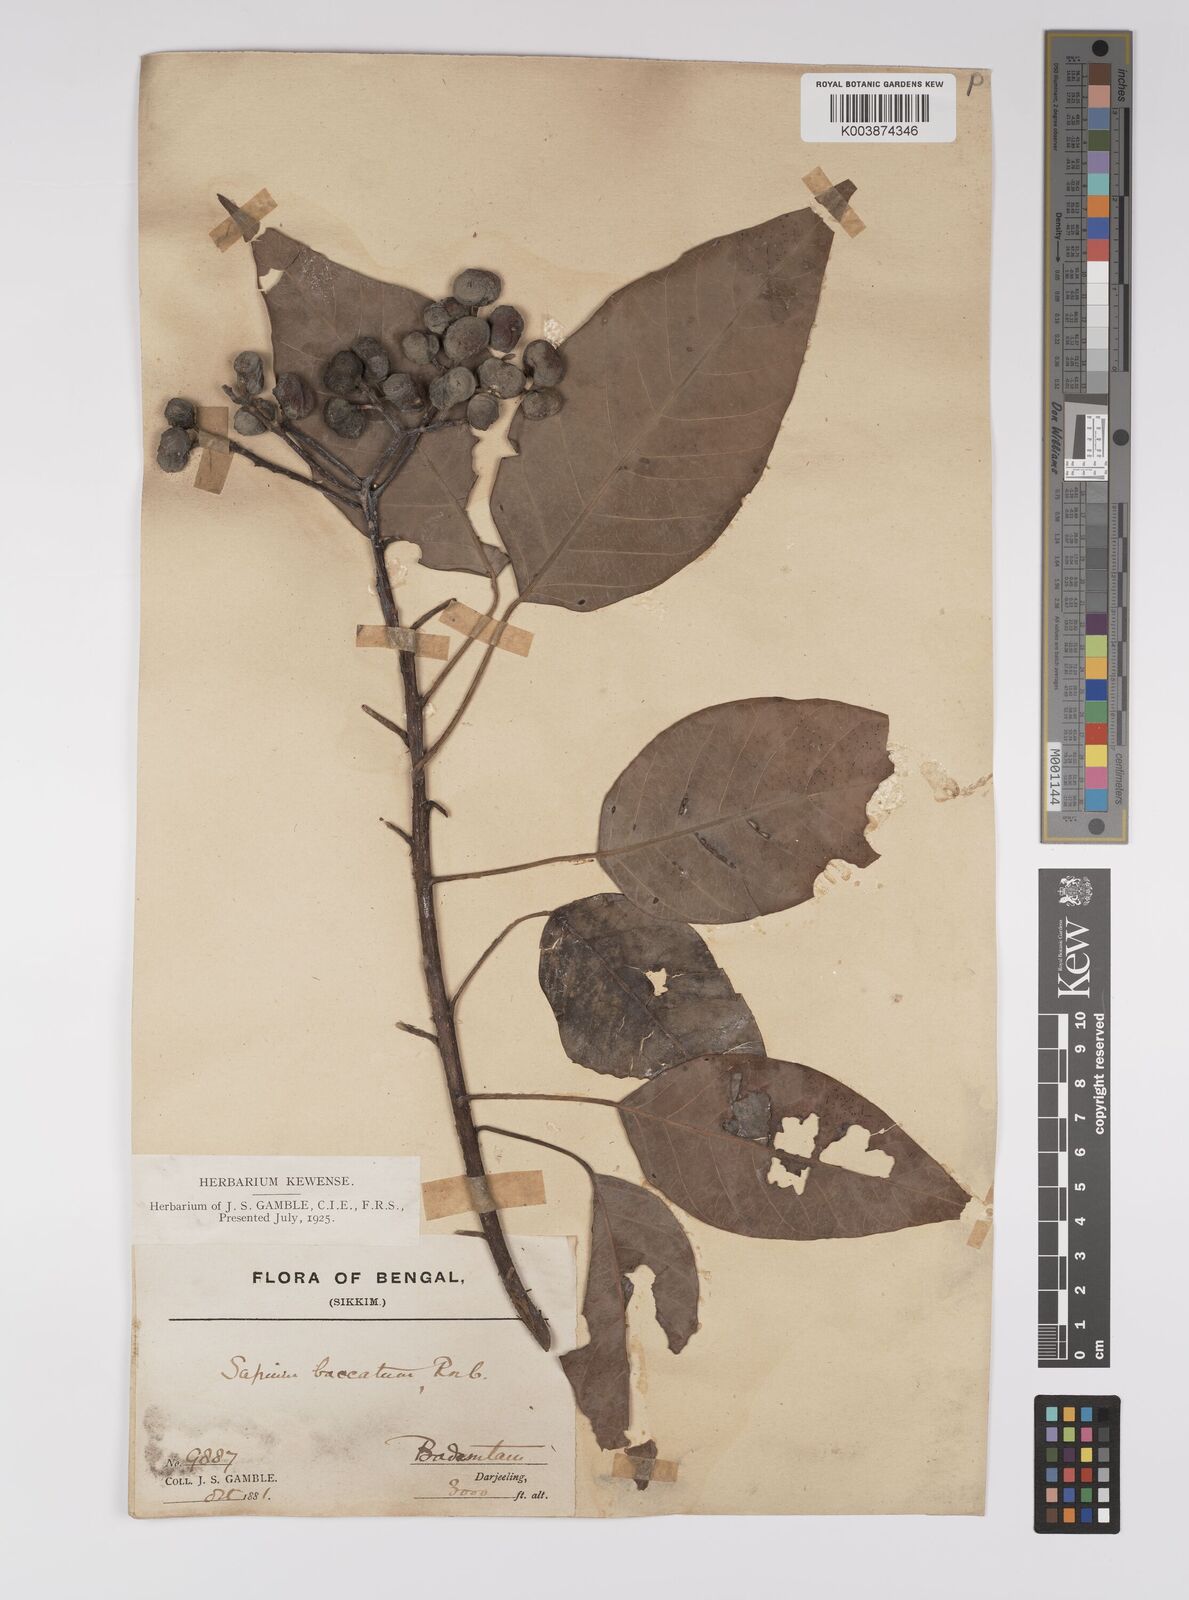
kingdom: Plantae
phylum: Tracheophyta
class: Magnoliopsida
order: Malpighiales
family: Euphorbiaceae
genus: Balakata
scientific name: Balakata baccata
